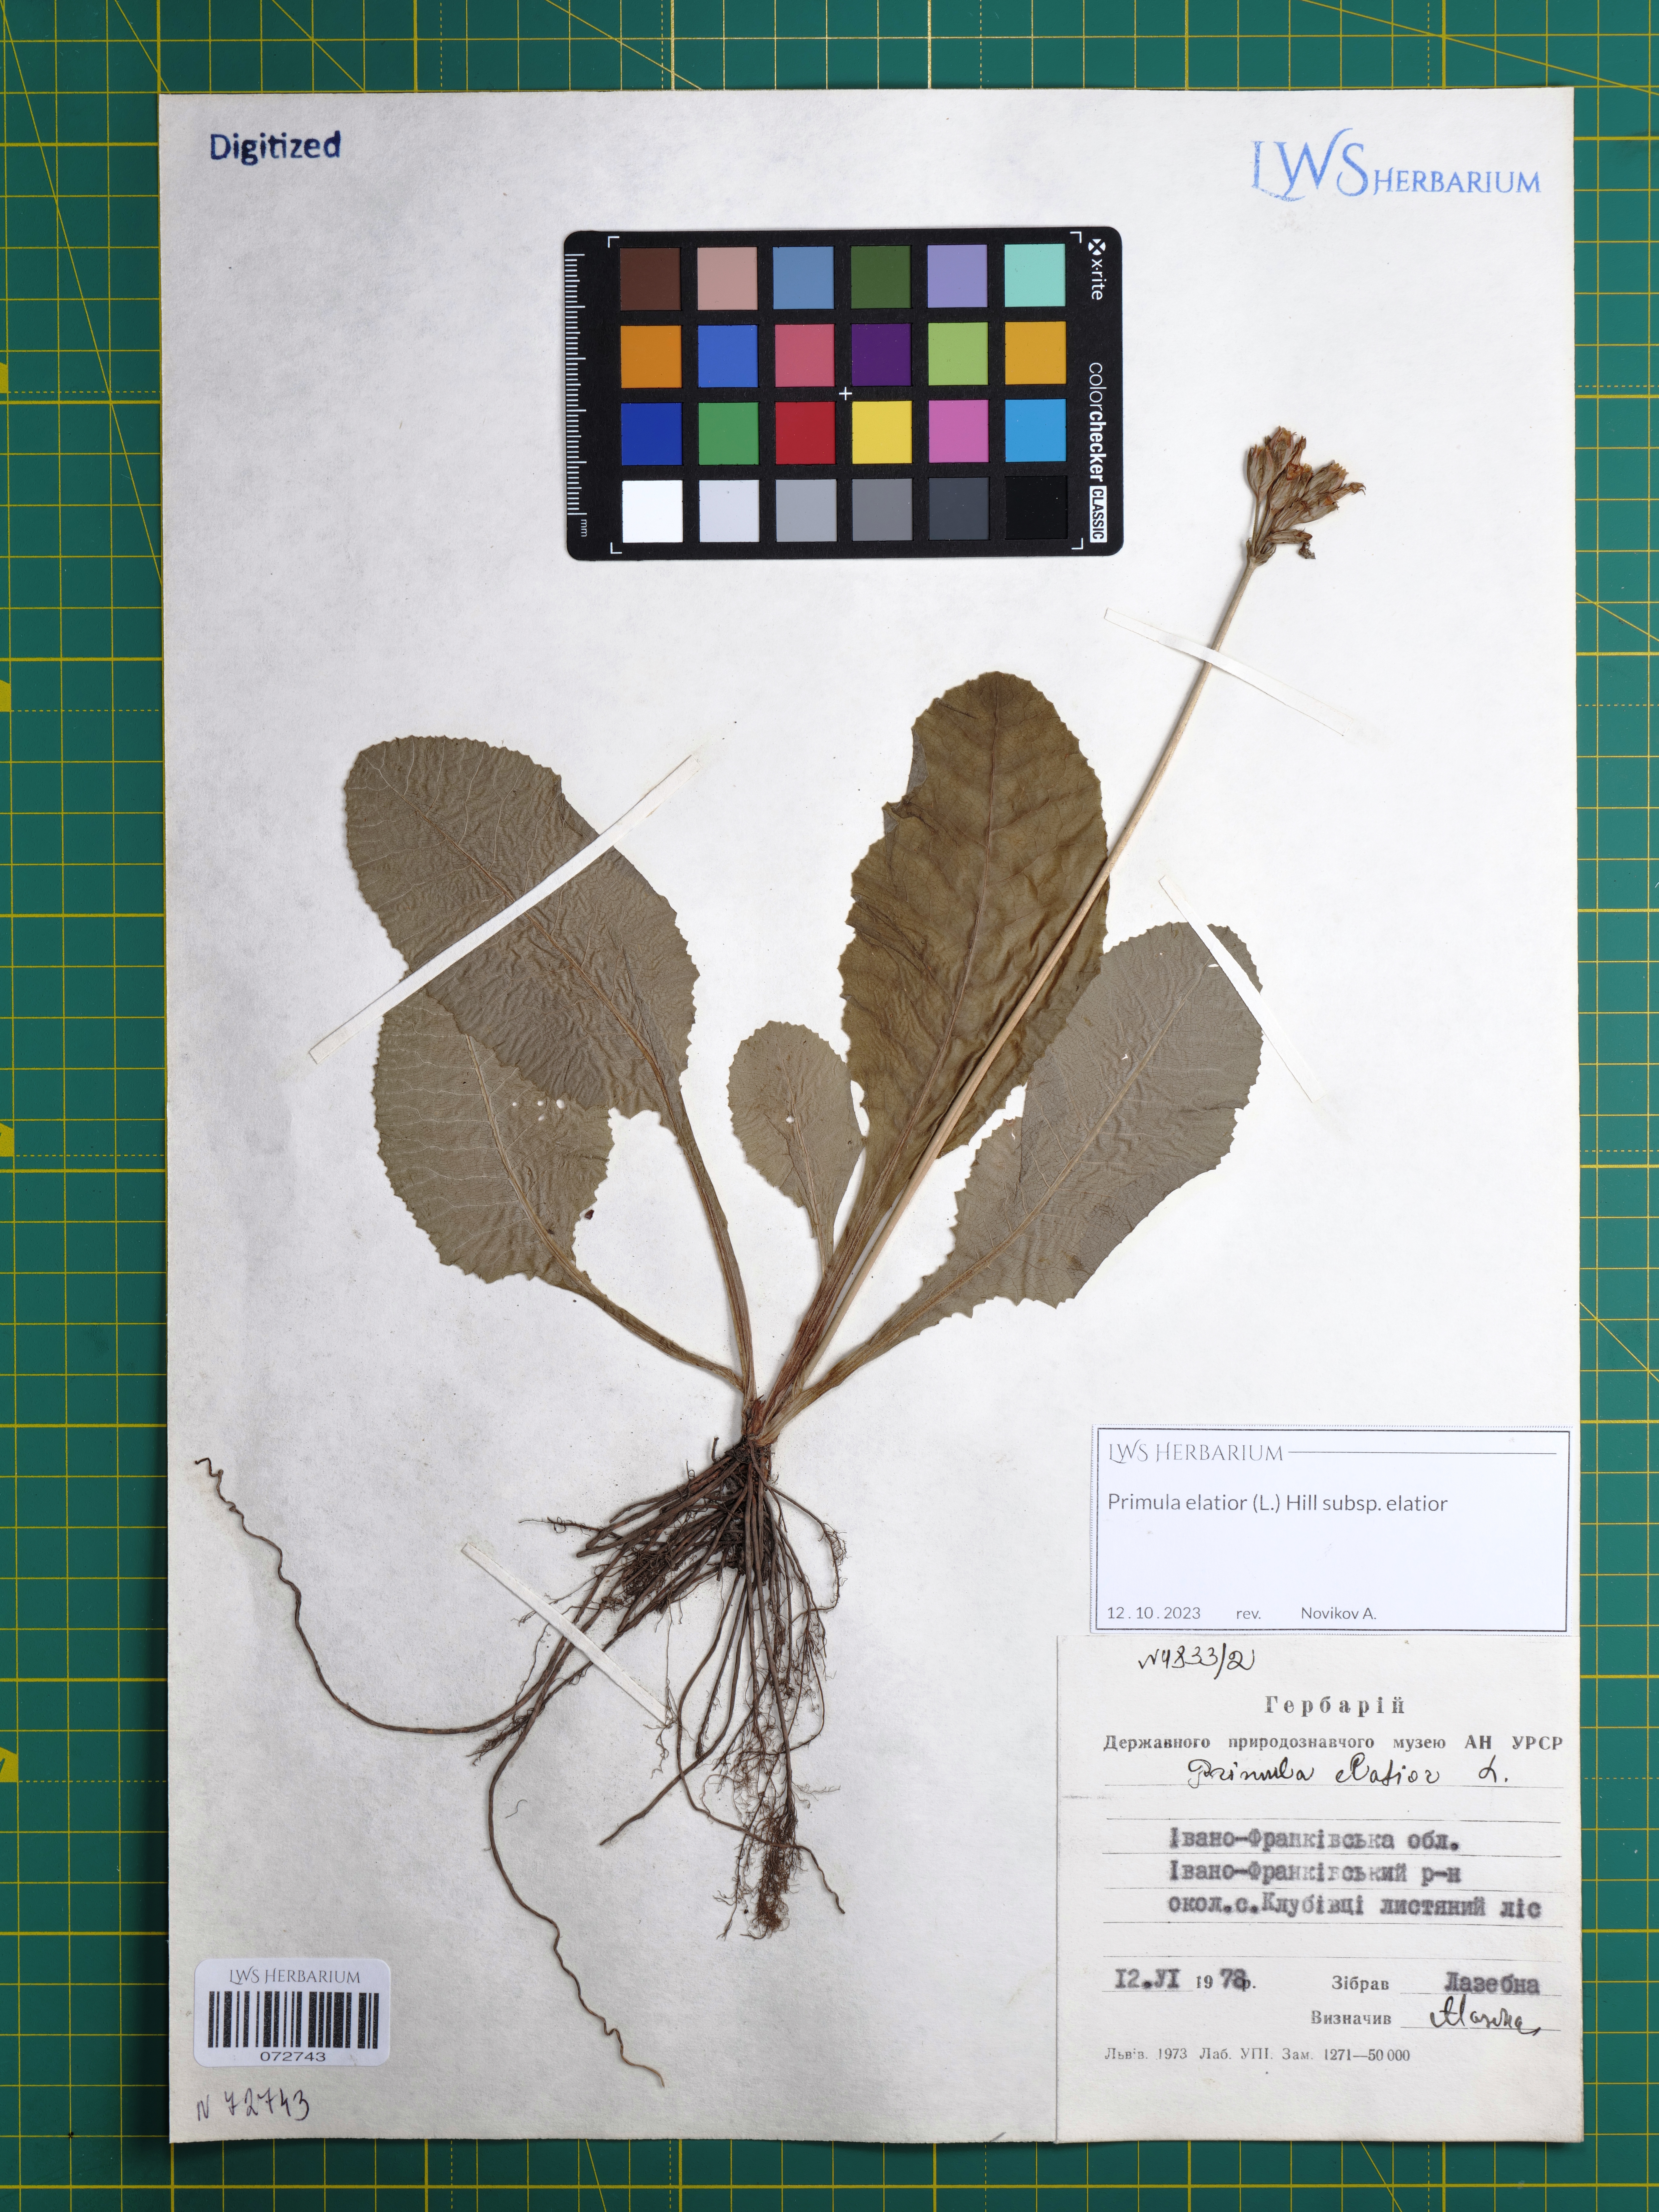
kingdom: Plantae
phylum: Tracheophyta
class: Magnoliopsida
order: Ericales
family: Primulaceae
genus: Primula
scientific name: Primula elatior
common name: Oxlip
